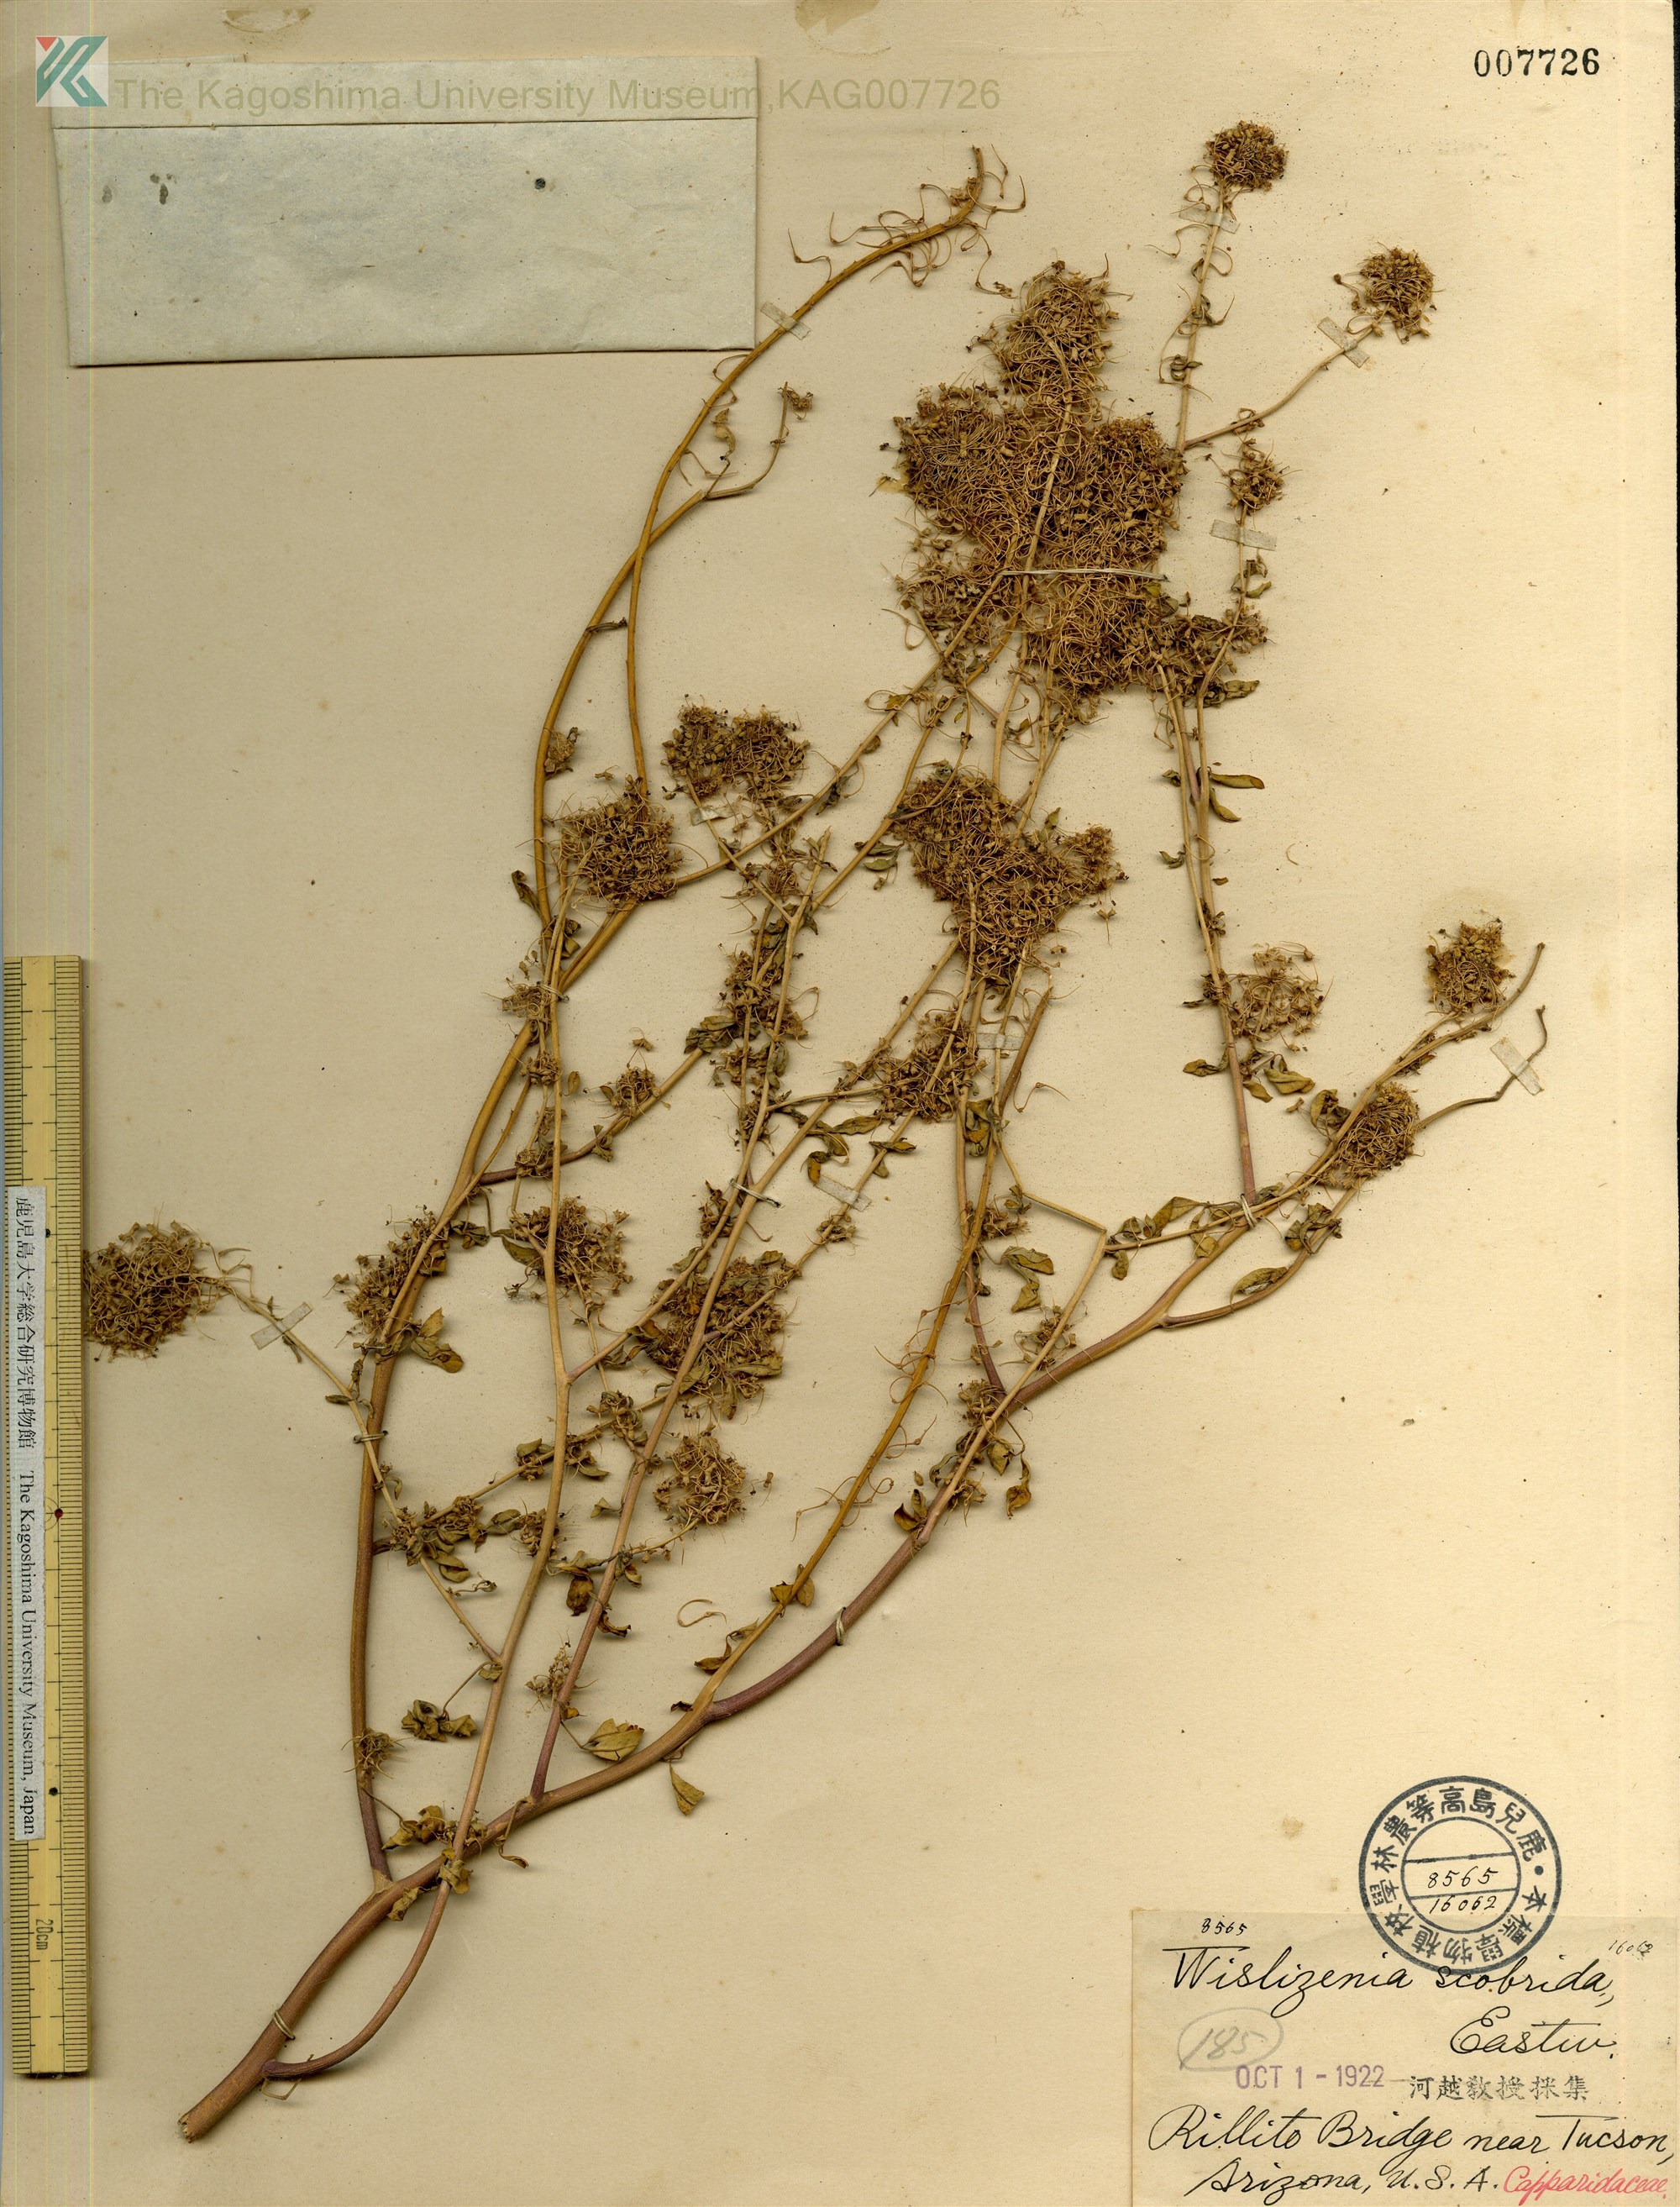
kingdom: Plantae
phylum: Tracheophyta
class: Magnoliopsida
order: Brassicales
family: Cleomaceae
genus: Cleomella
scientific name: Cleomella refracta
